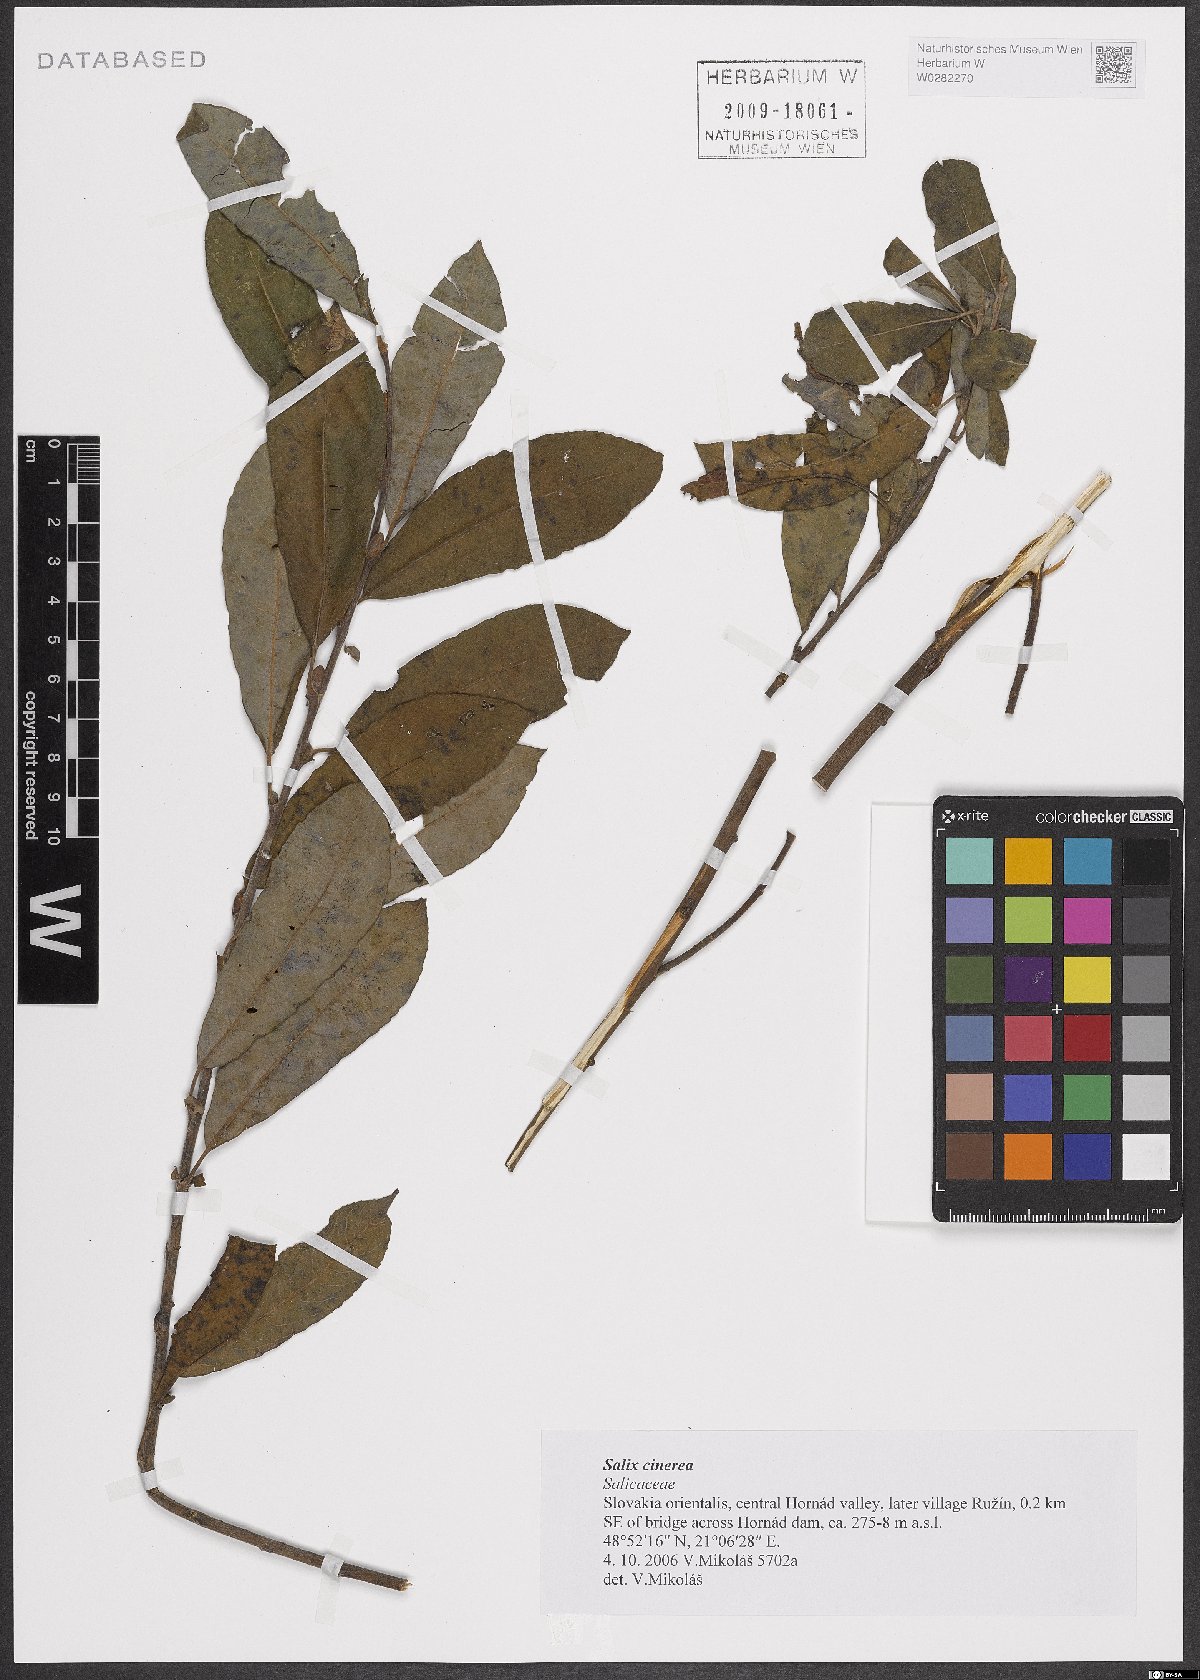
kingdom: Plantae
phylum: Tracheophyta
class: Magnoliopsida
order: Malpighiales
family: Salicaceae
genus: Salix
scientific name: Salix cinerea
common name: Common sallow
